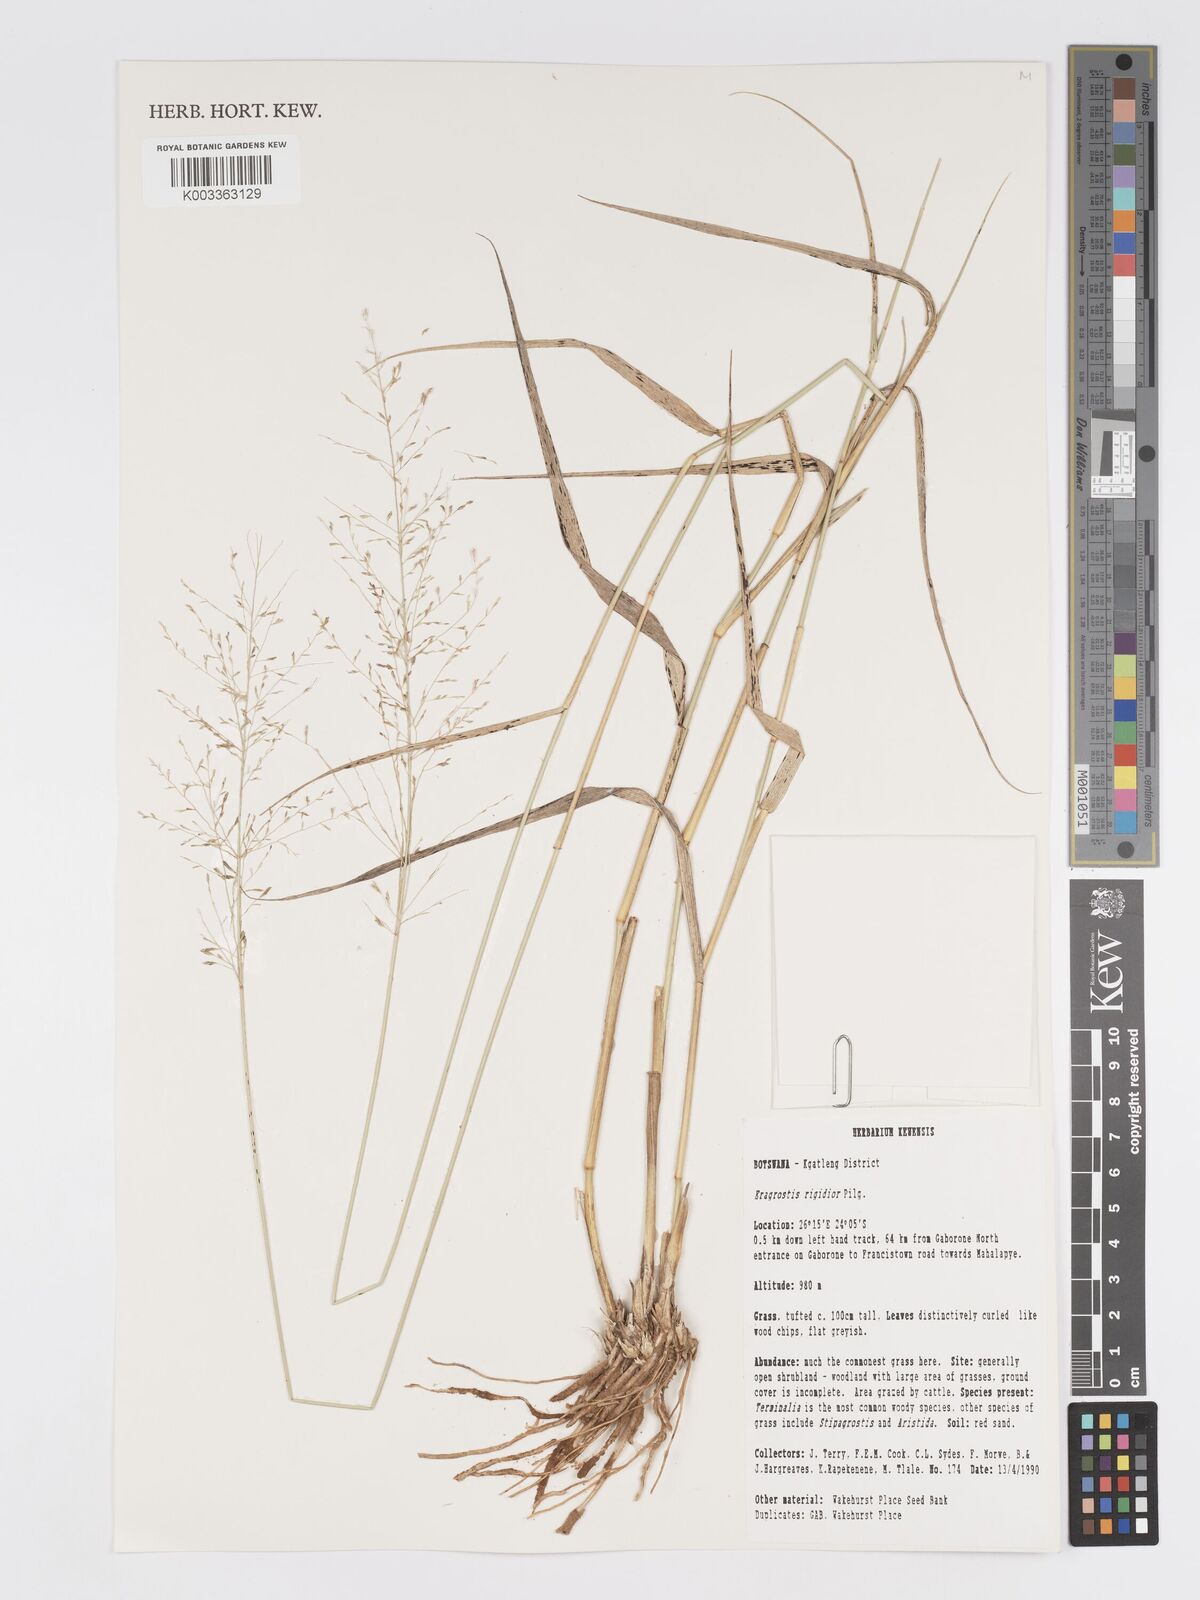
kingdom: Plantae
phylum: Tracheophyta
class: Liliopsida
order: Poales
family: Poaceae
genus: Eragrostis
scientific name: Eragrostis cylindriflora
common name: Cylinderflower lovegrass
